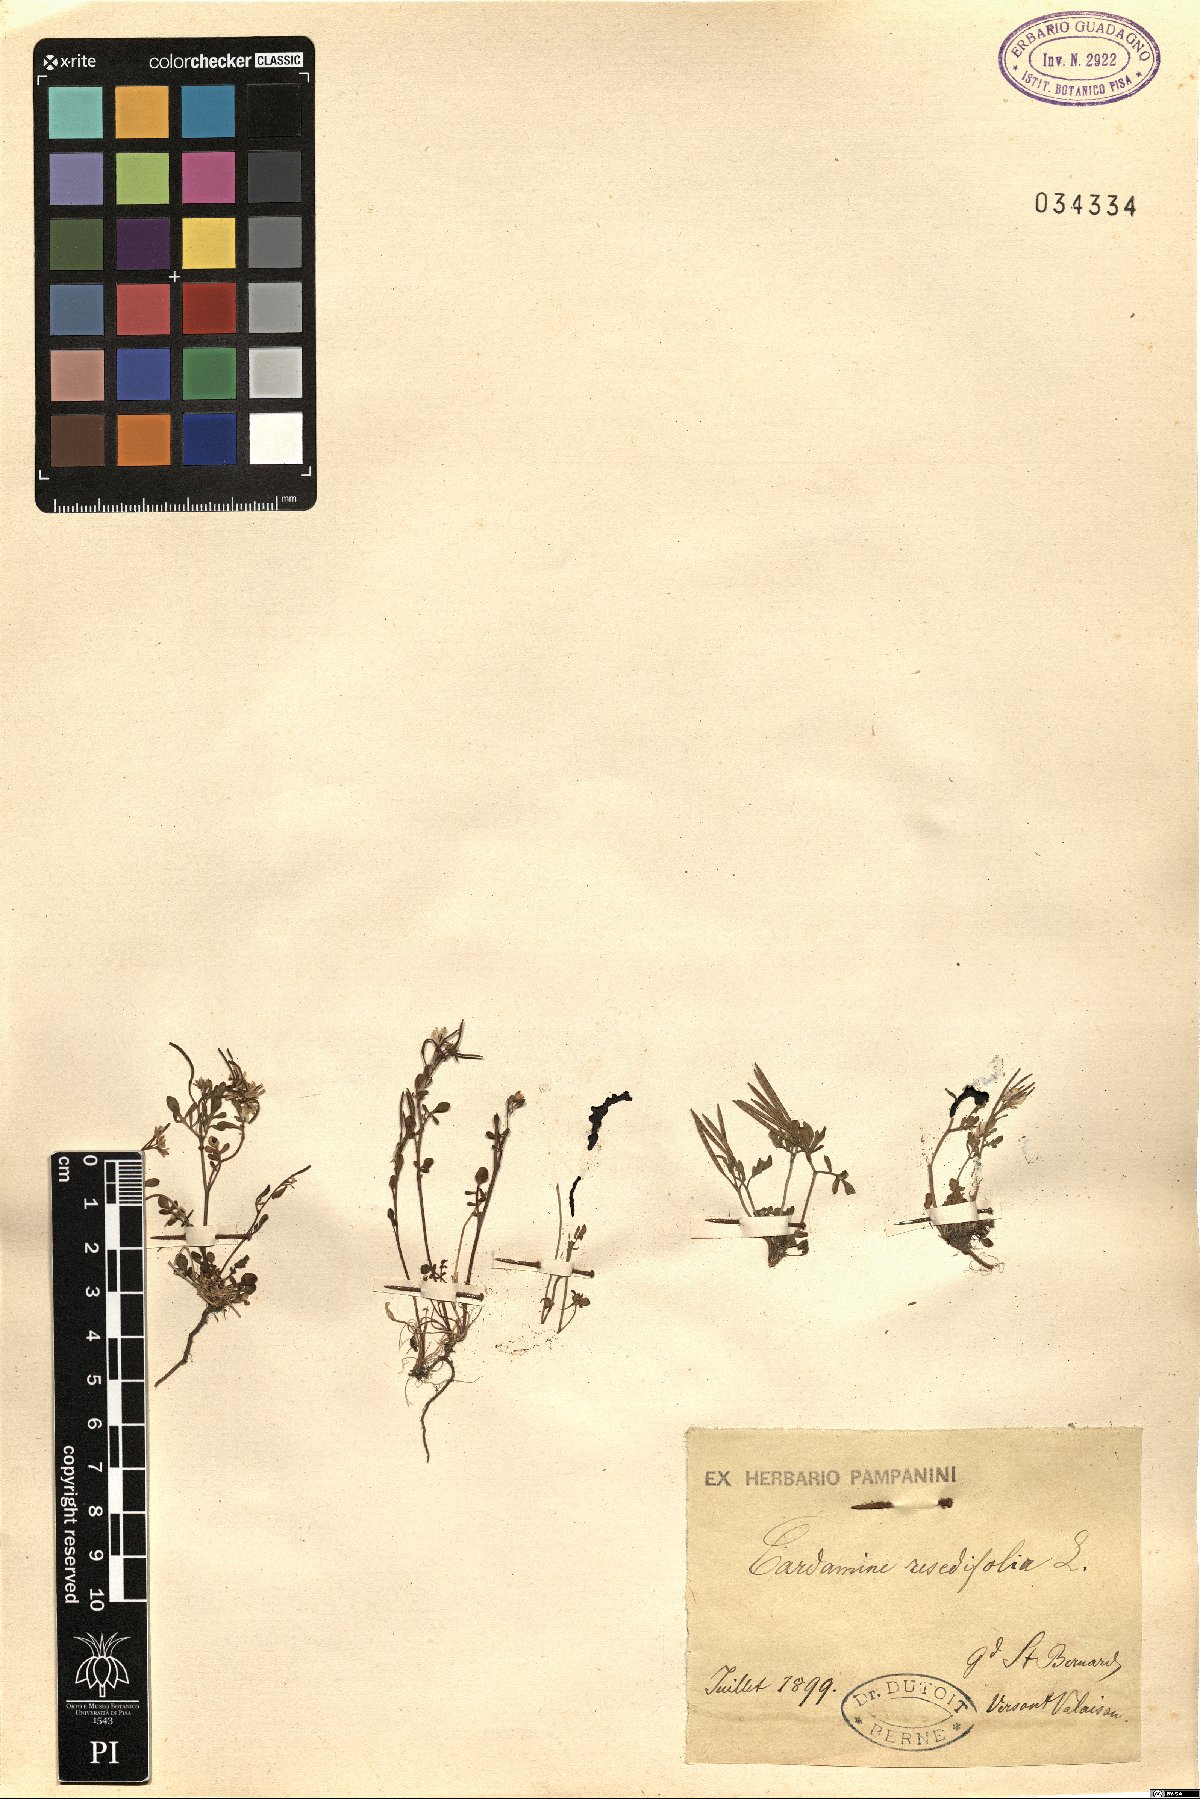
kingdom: Plantae
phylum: Tracheophyta
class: Magnoliopsida
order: Brassicales
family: Brassicaceae
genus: Cardamine
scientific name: Cardamine resedifolia
